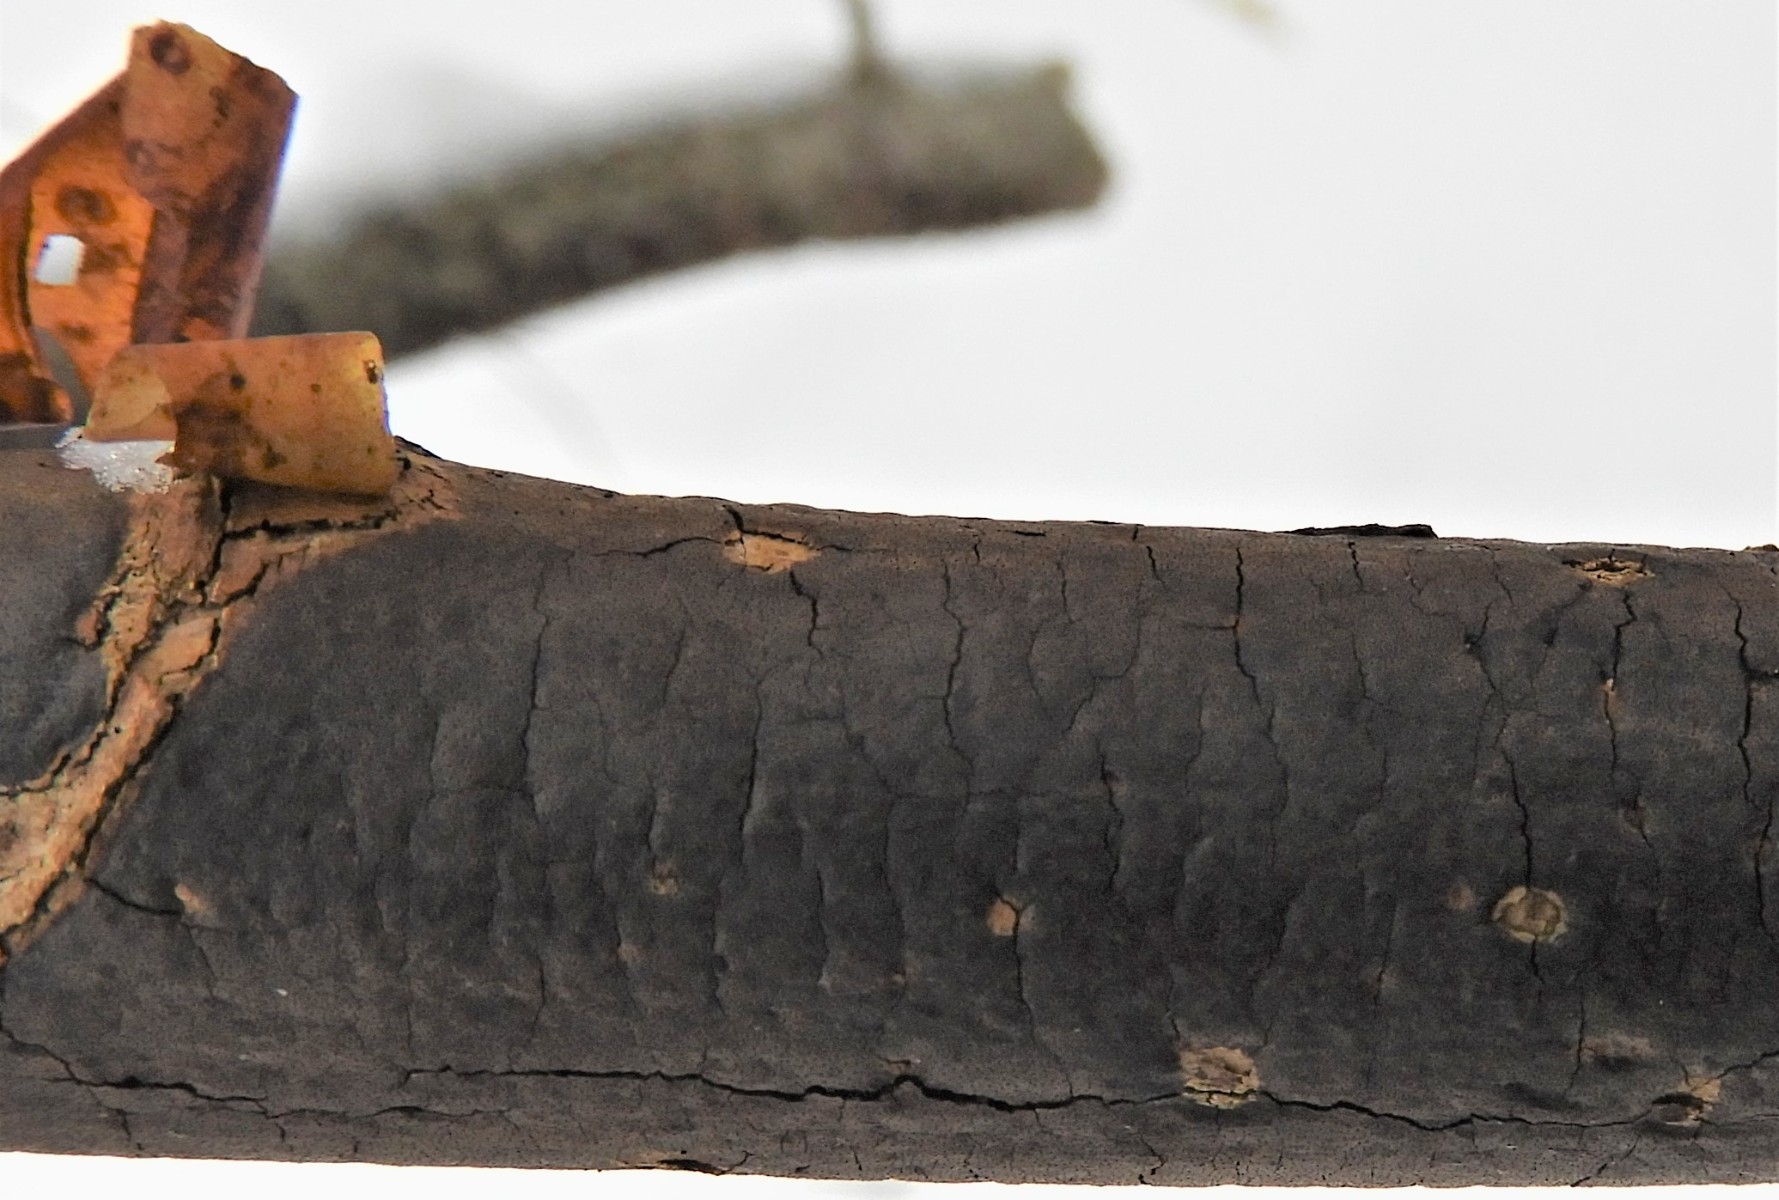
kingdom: Fungi
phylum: Ascomycota
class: Sordariomycetes
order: Xylariales
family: Diatrypaceae
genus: Diatrype
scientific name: Diatrype decorticata
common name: barksprænger-kulskorpe
